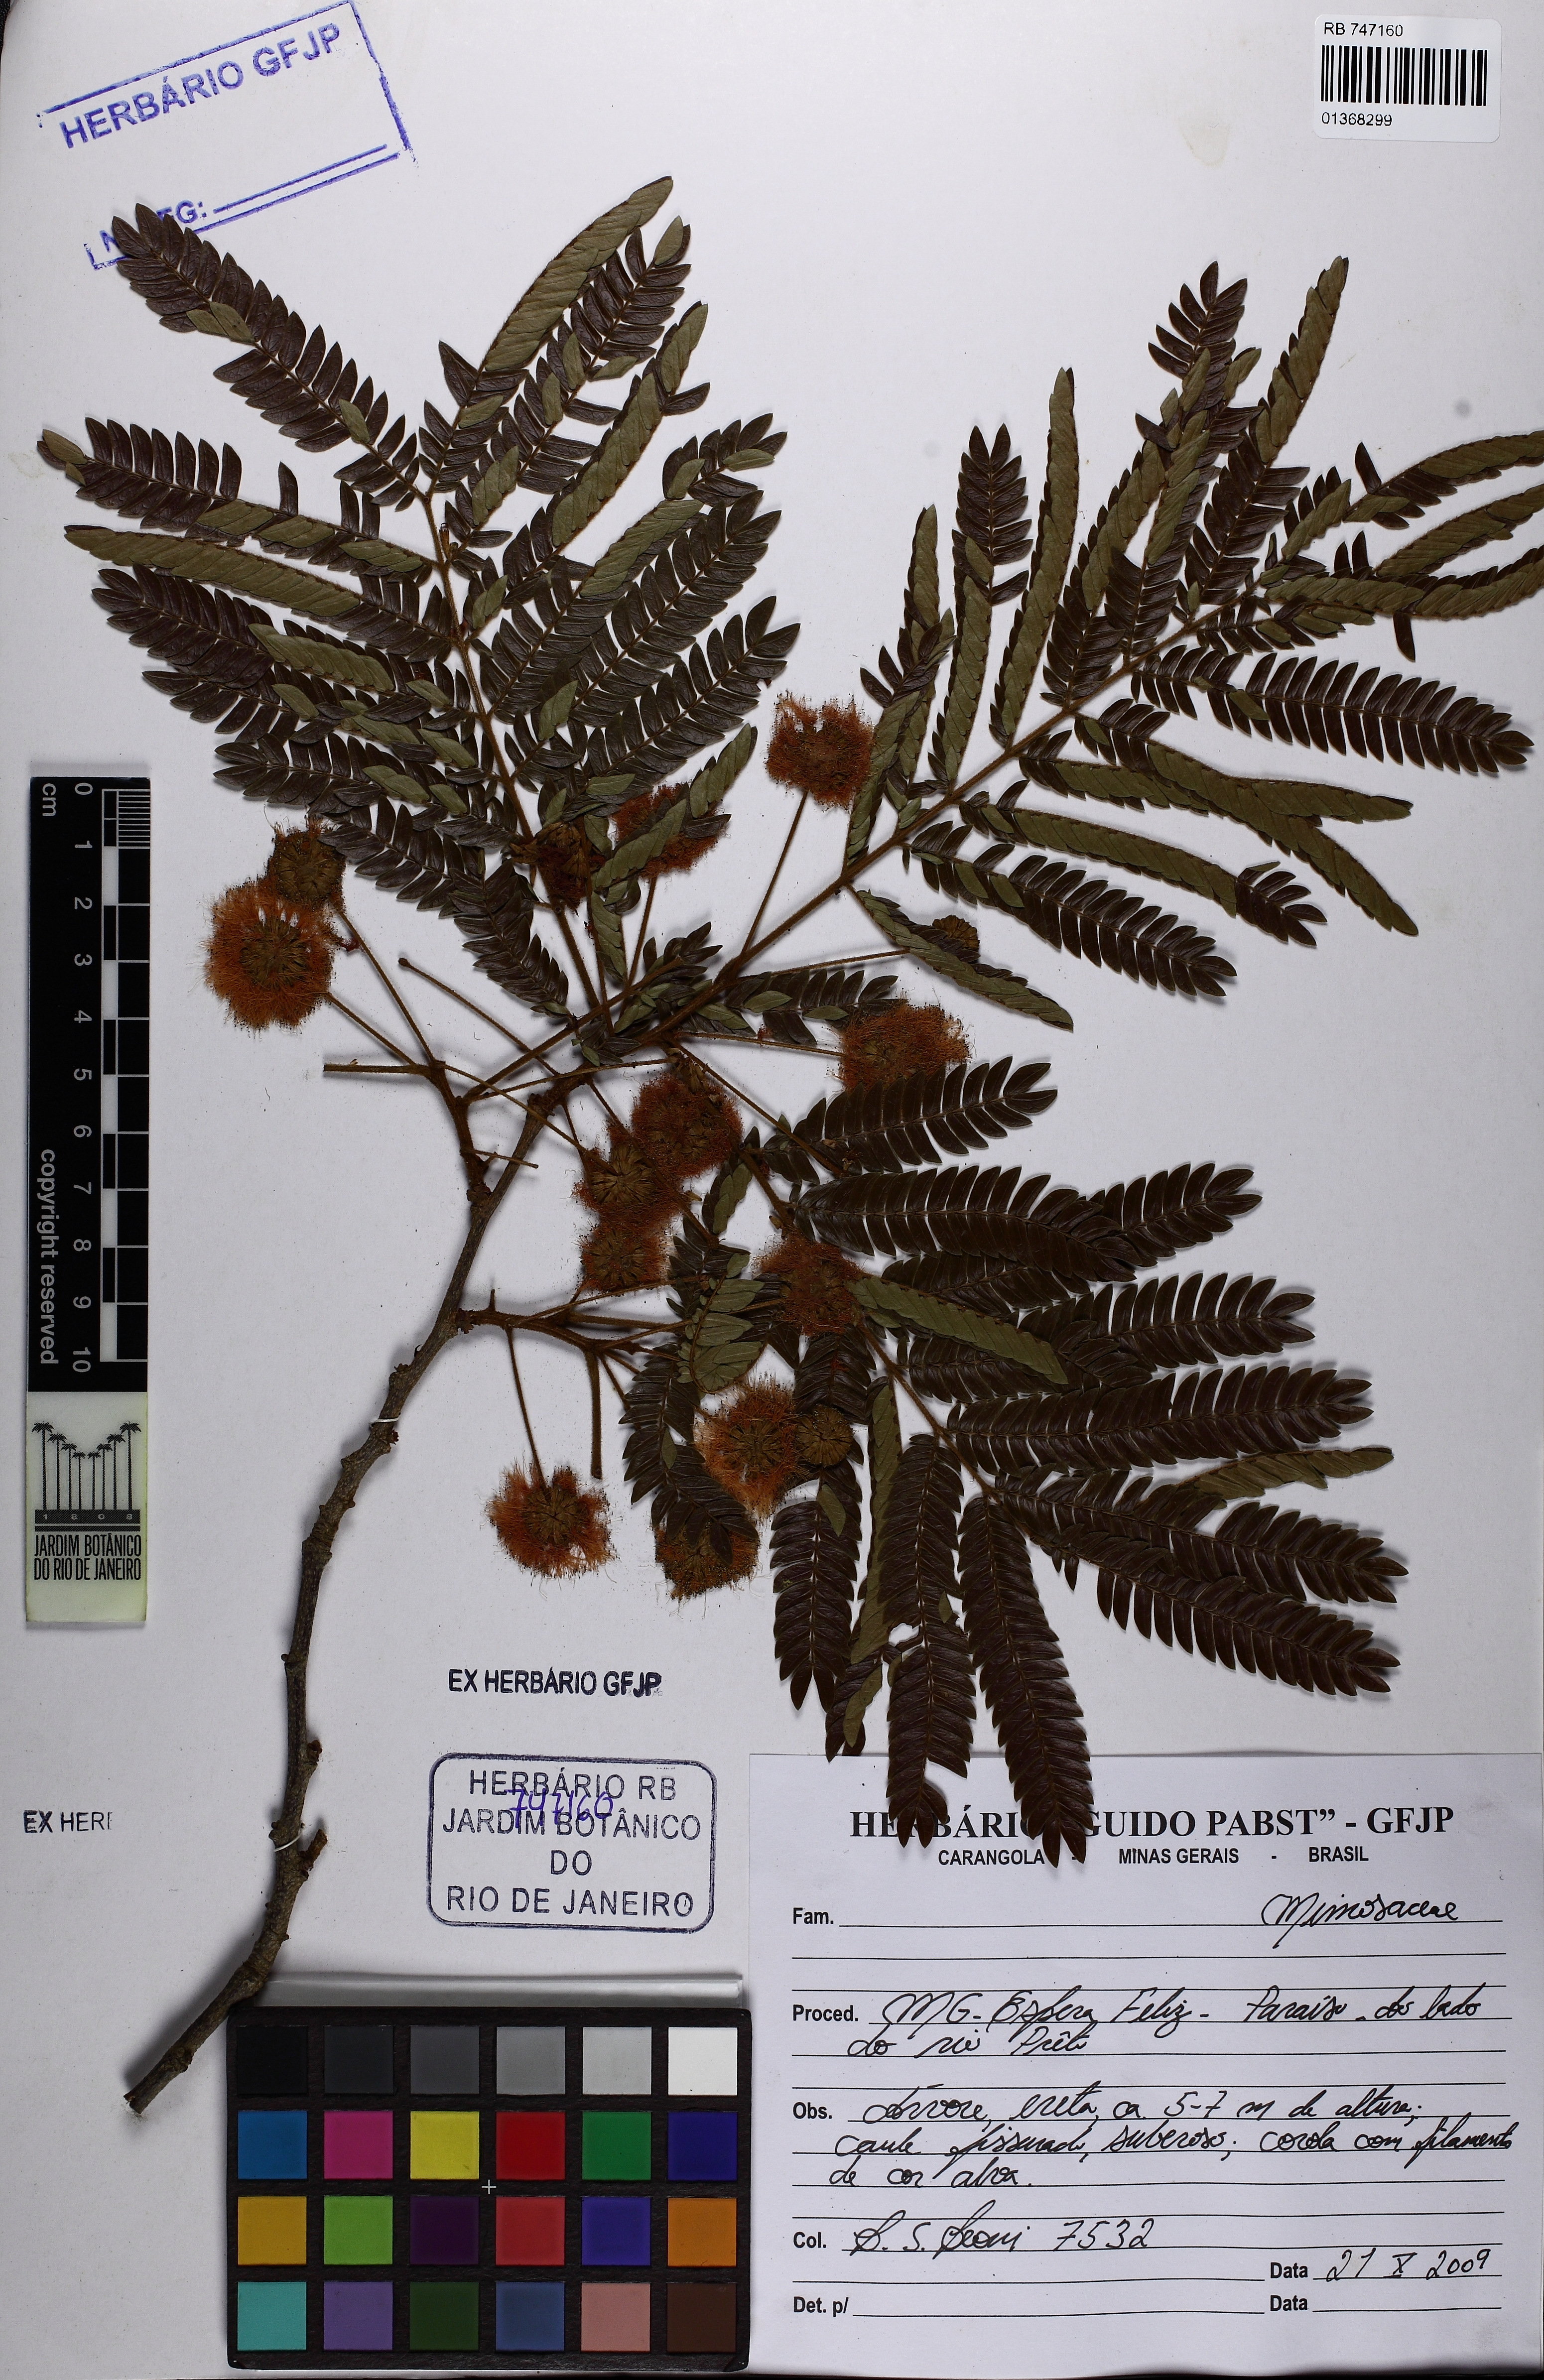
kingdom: Plantae
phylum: Tracheophyta
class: Magnoliopsida
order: Fabales
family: Fabaceae
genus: Enterolobium
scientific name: Enterolobium
